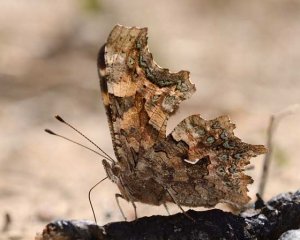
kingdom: Animalia
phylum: Arthropoda
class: Insecta
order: Lepidoptera
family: Nymphalidae
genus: Polygonia
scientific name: Polygonia faunus
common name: Green Comma
